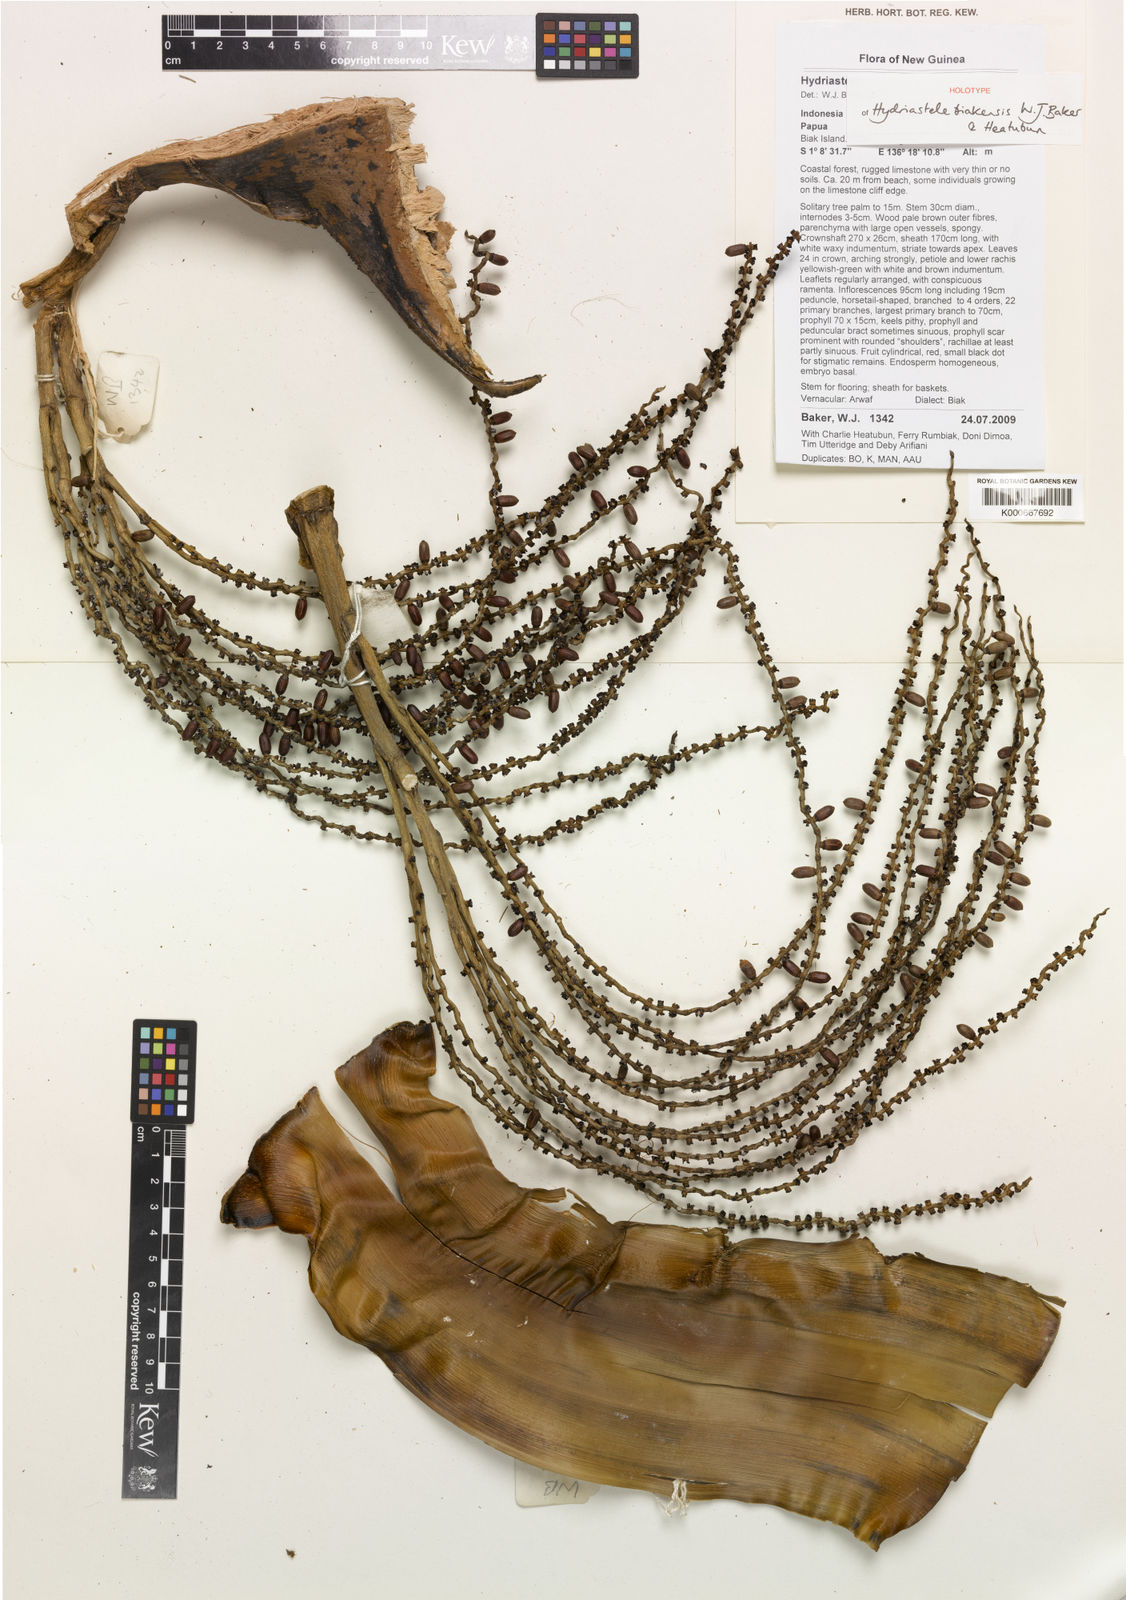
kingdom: Plantae
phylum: Tracheophyta
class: Liliopsida
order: Arecales
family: Arecaceae
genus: Hydriastele
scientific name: Hydriastele biakensis
